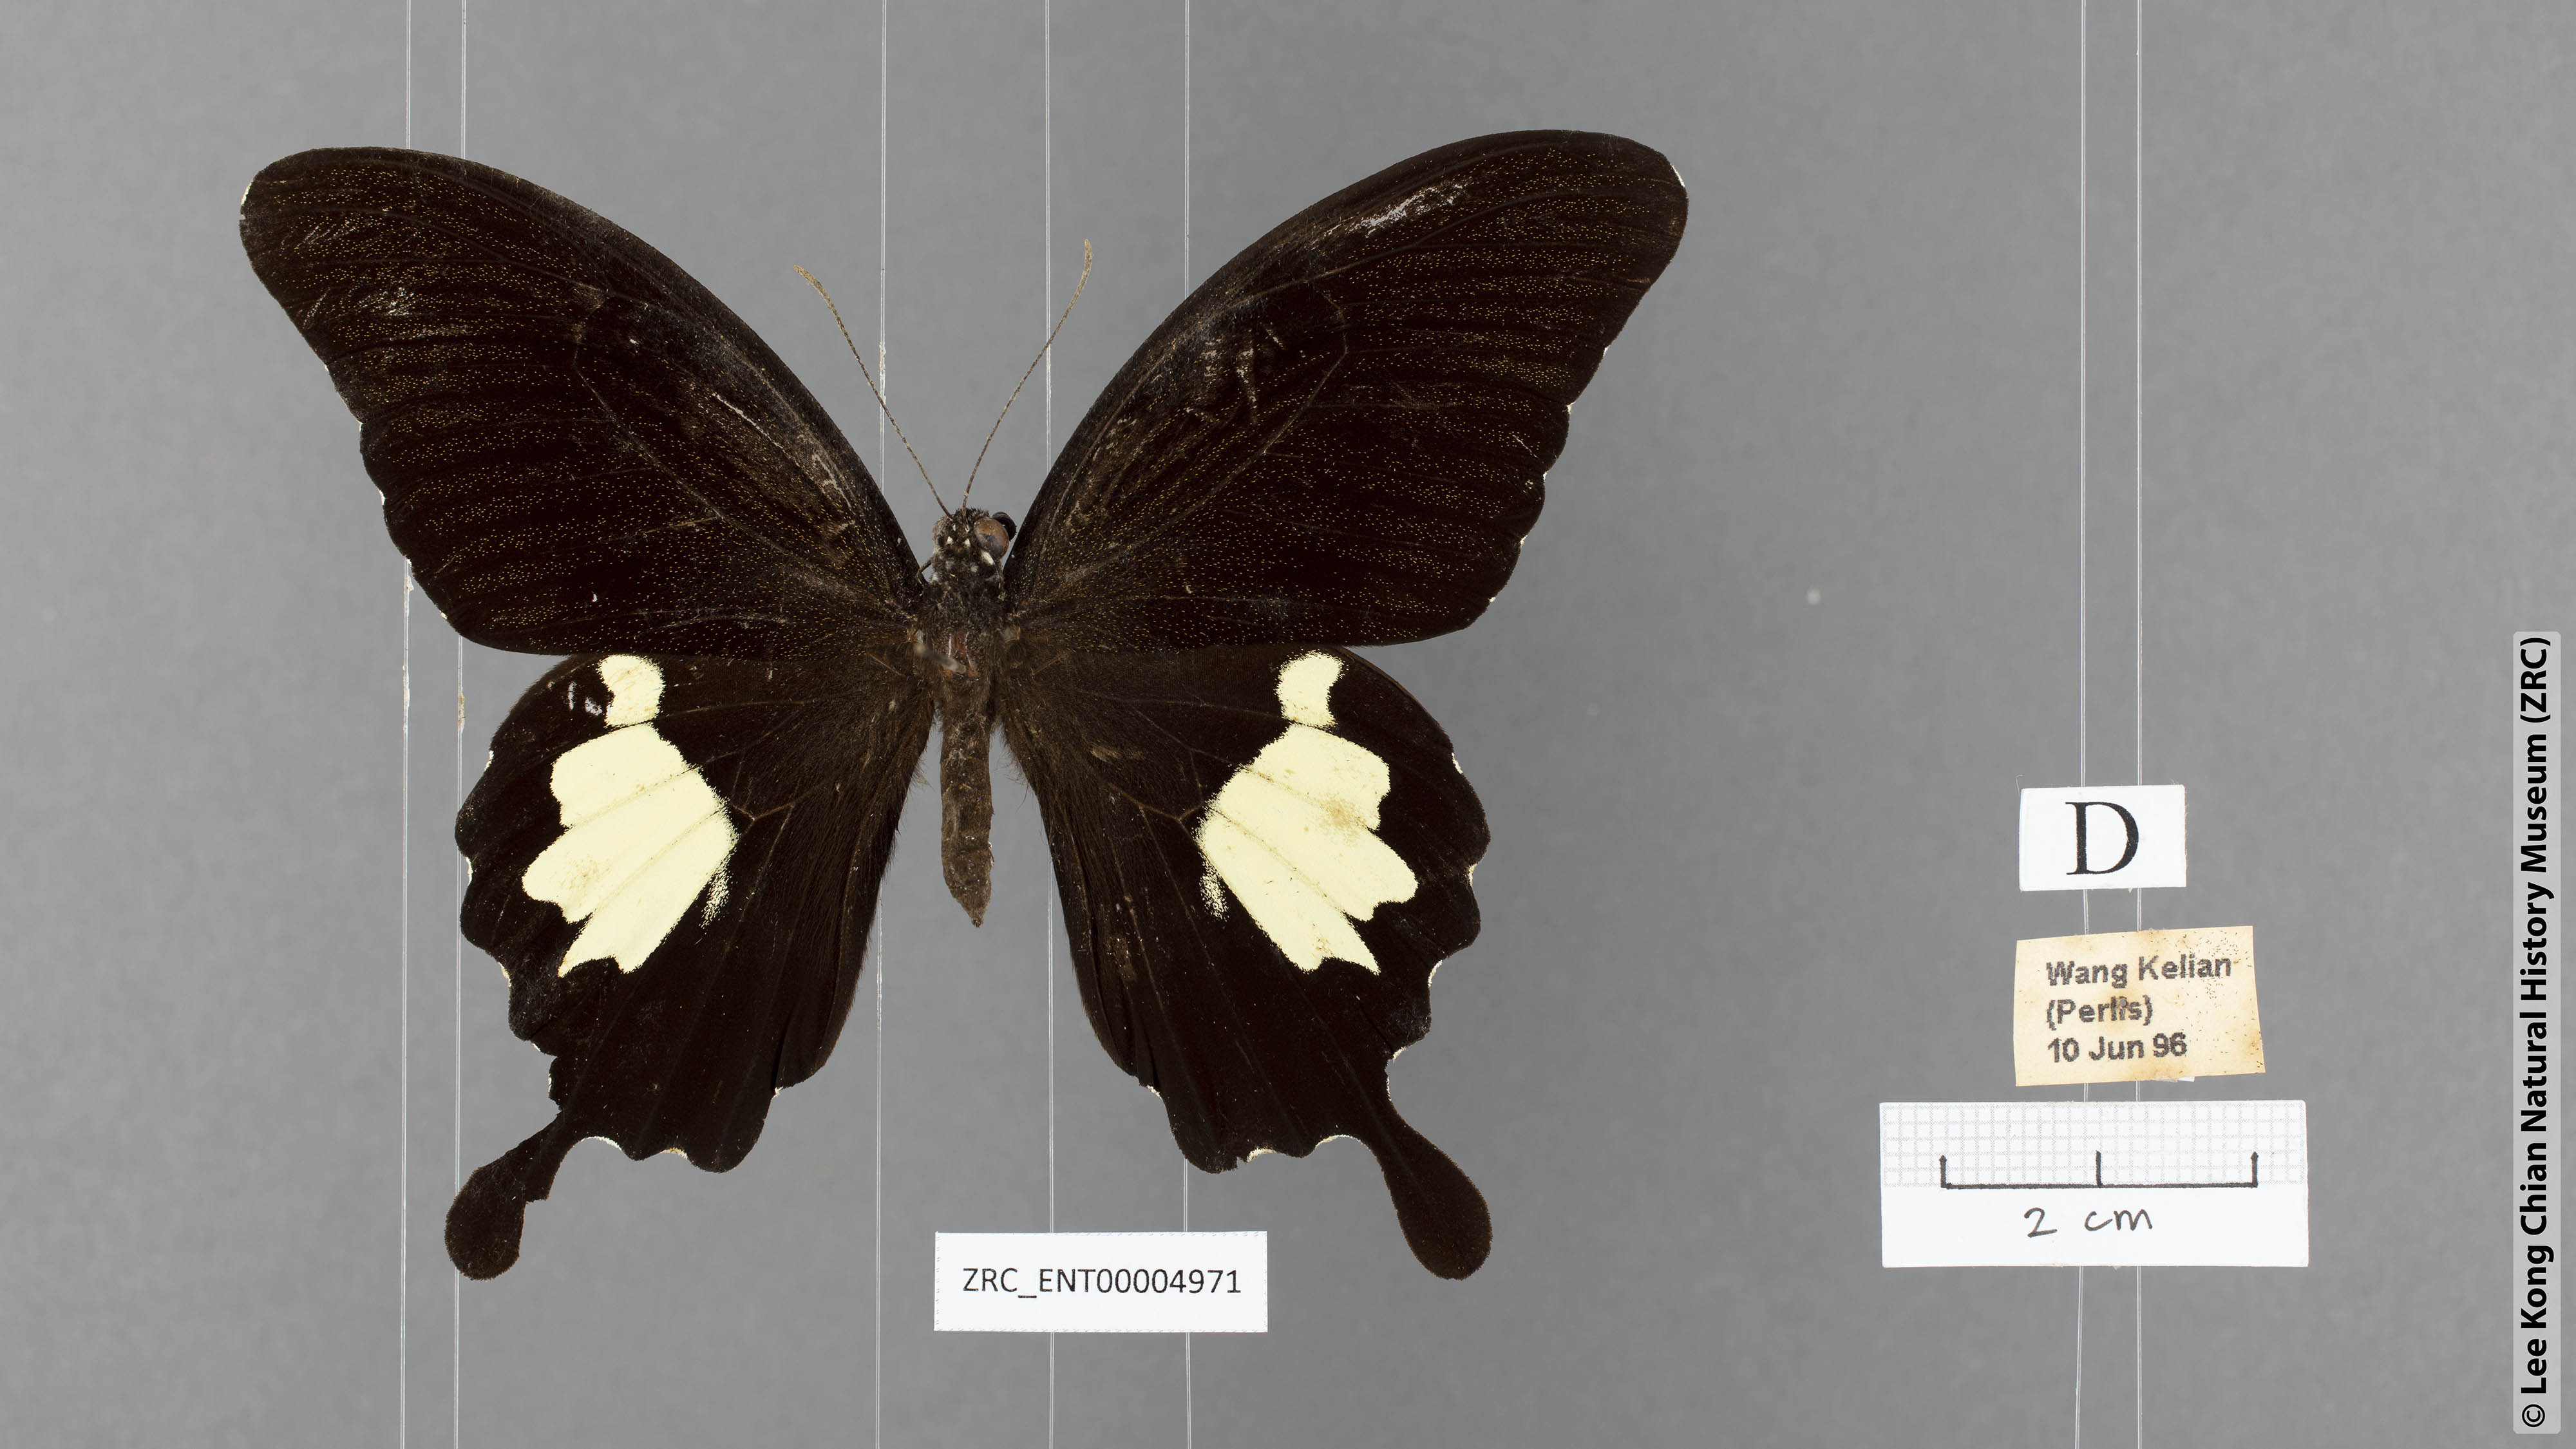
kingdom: Animalia
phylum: Arthropoda
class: Insecta
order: Lepidoptera
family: Papilionidae
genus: Papilio
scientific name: Papilio nephelus
